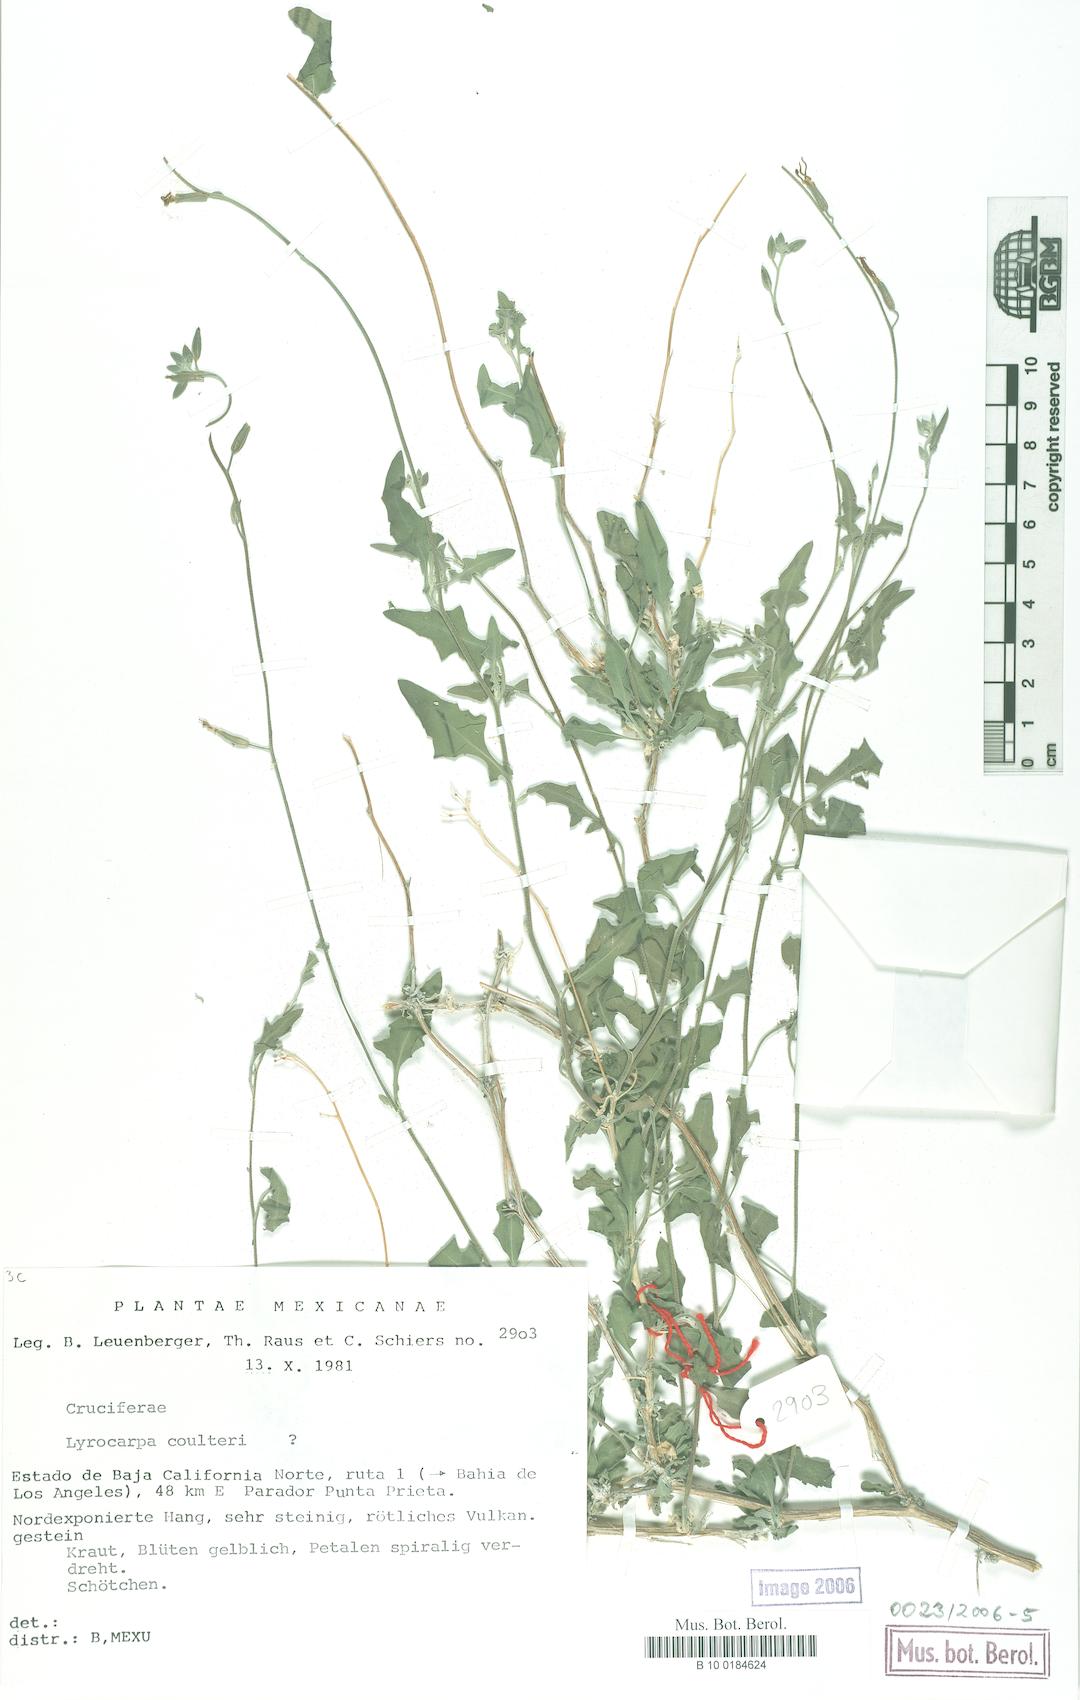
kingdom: Plantae
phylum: Tracheophyta
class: Magnoliopsida
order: Brassicales
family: Brassicaceae
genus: Lyrocarpa
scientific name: Lyrocarpa coulteri
